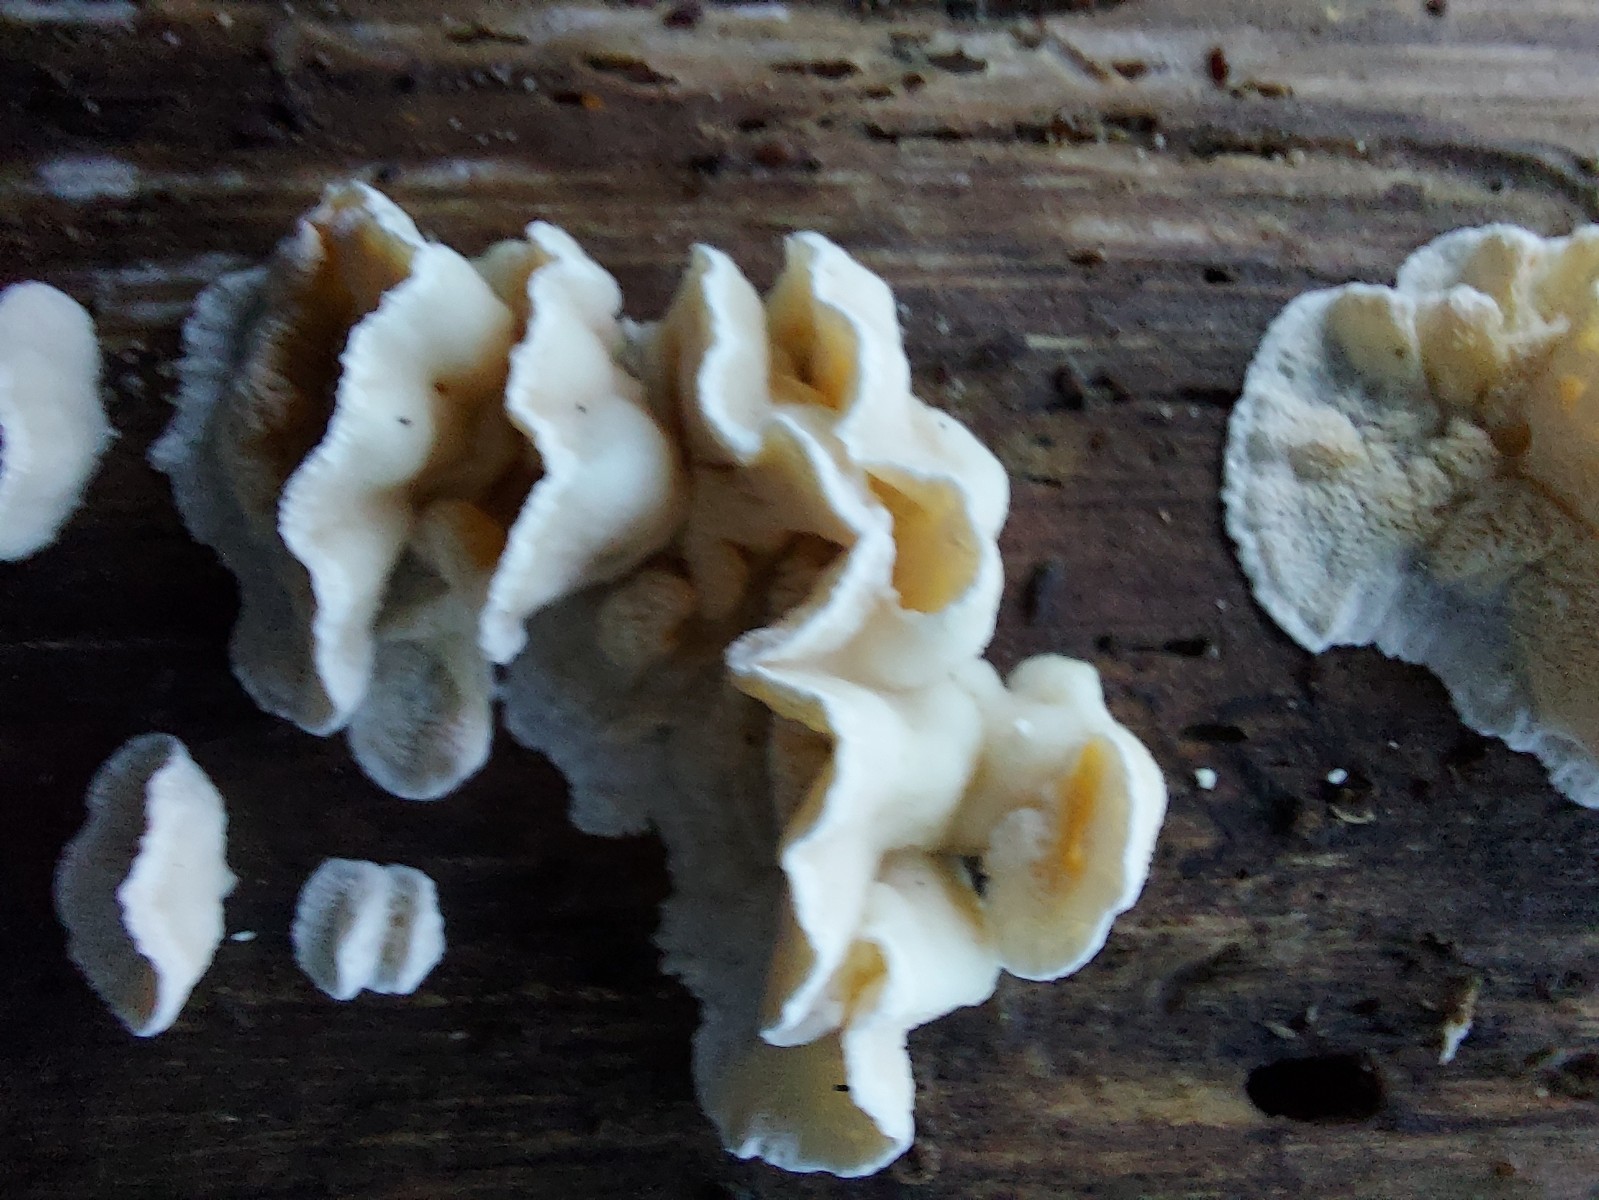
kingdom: Fungi
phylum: Basidiomycota
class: Agaricomycetes
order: Polyporales
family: Incrustoporiaceae
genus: Skeletocutis
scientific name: Skeletocutis amorpha
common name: orange krystalporesvamp
